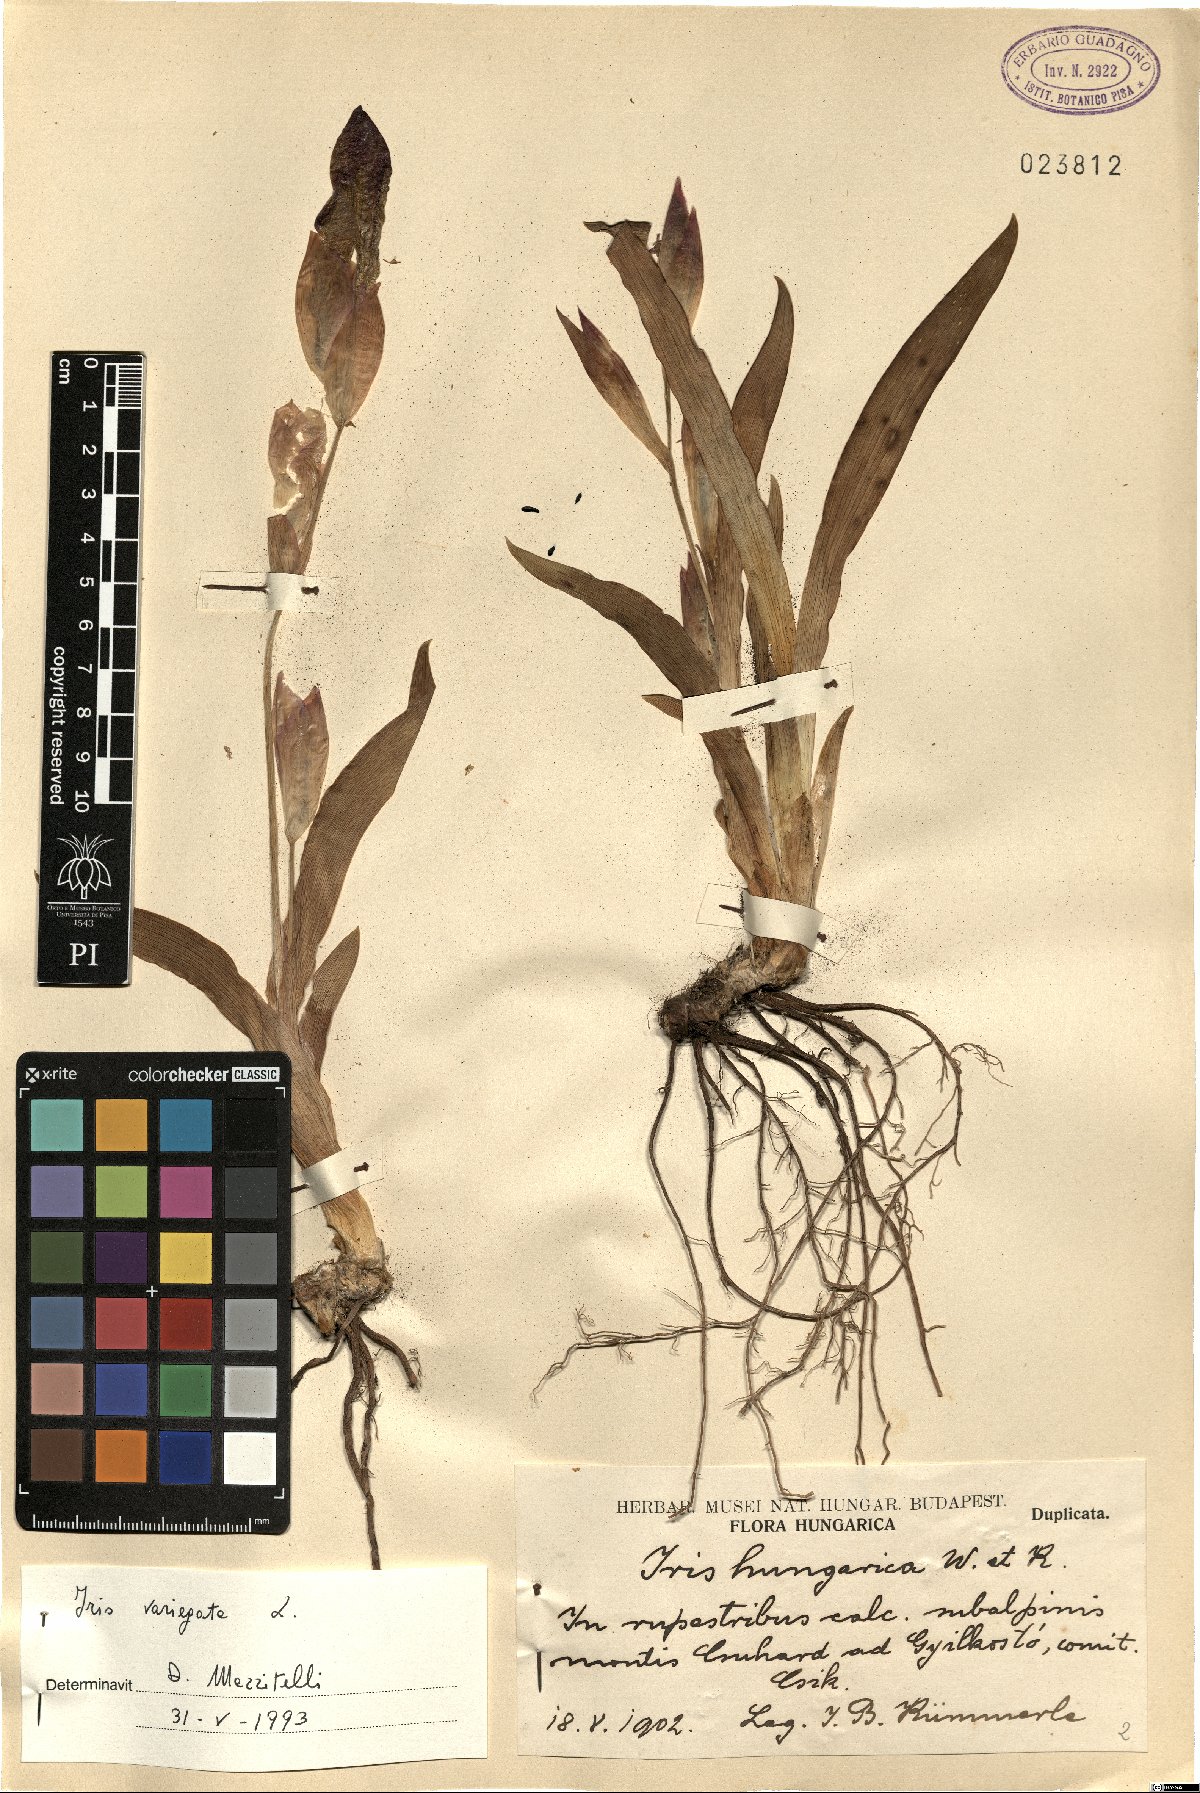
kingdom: Plantae
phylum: Tracheophyta
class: Liliopsida
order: Asparagales
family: Iridaceae
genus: Iris
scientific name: Iris variegata
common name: Hungarian iris
